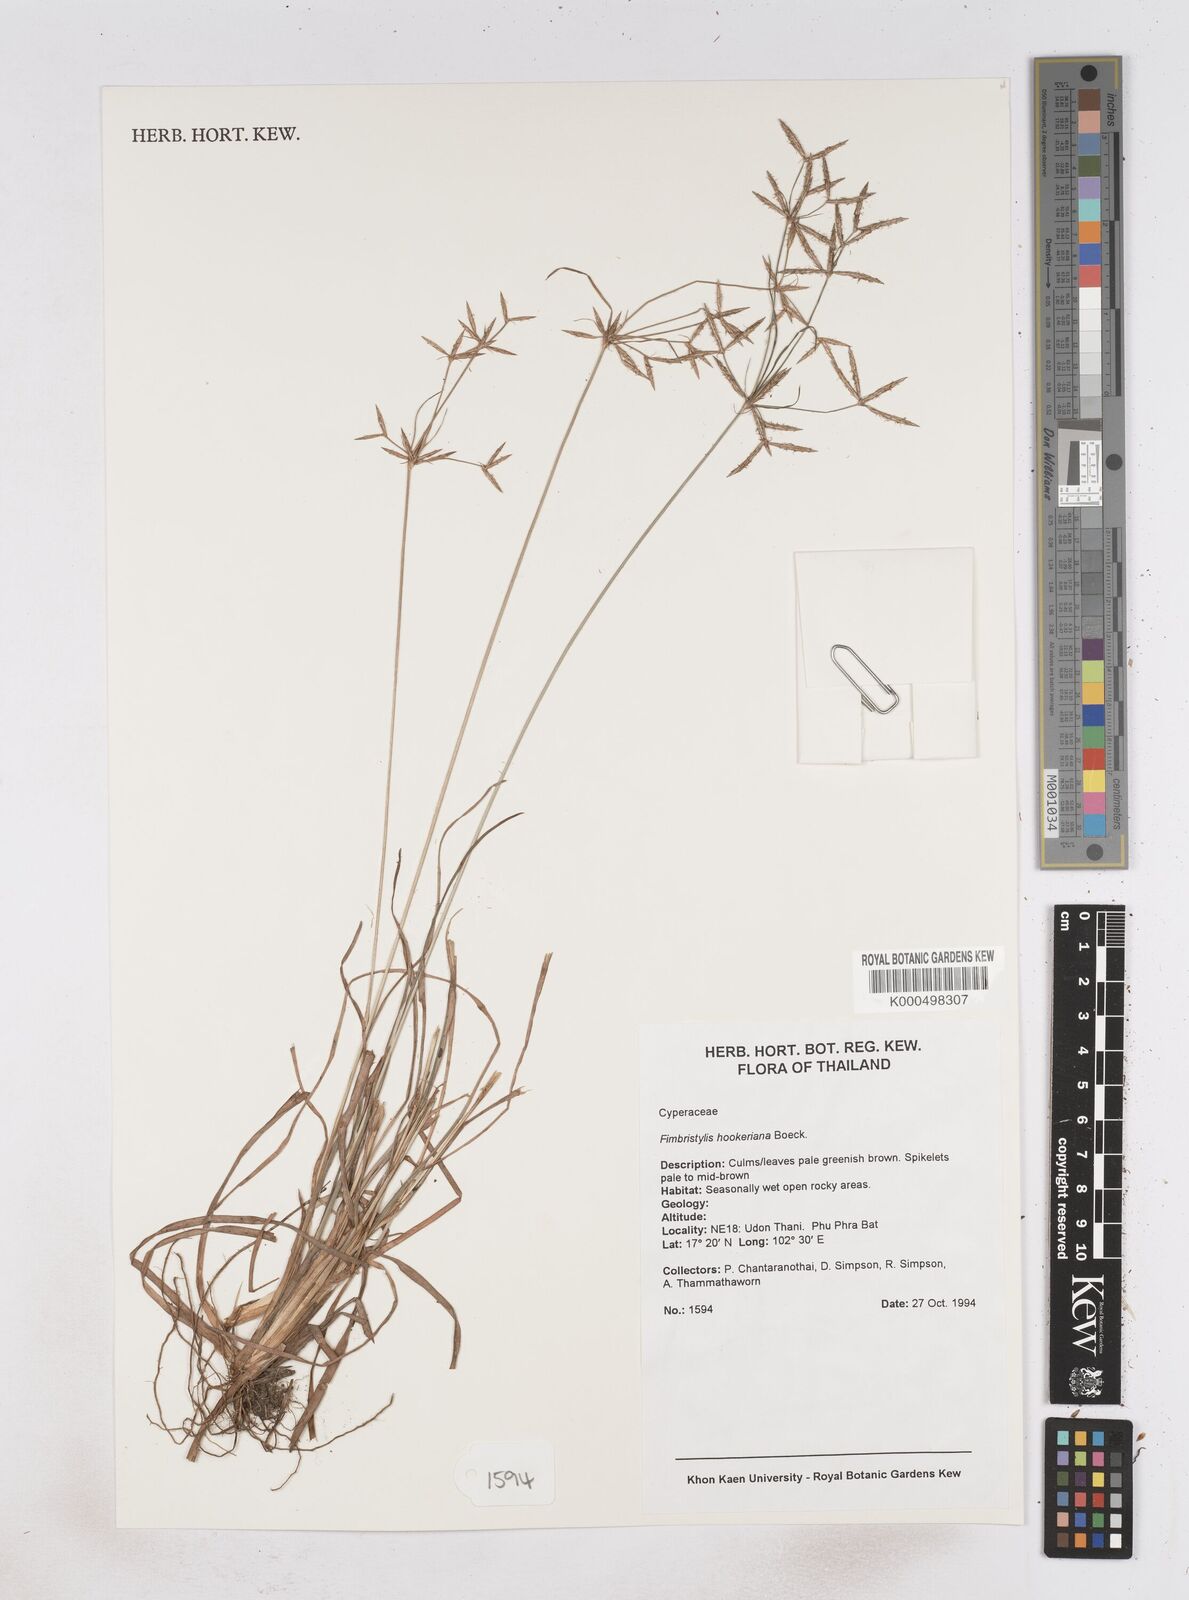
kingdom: Plantae
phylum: Tracheophyta
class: Liliopsida
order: Poales
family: Cyperaceae
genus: Fimbristylis
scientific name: Fimbristylis hookeriana
